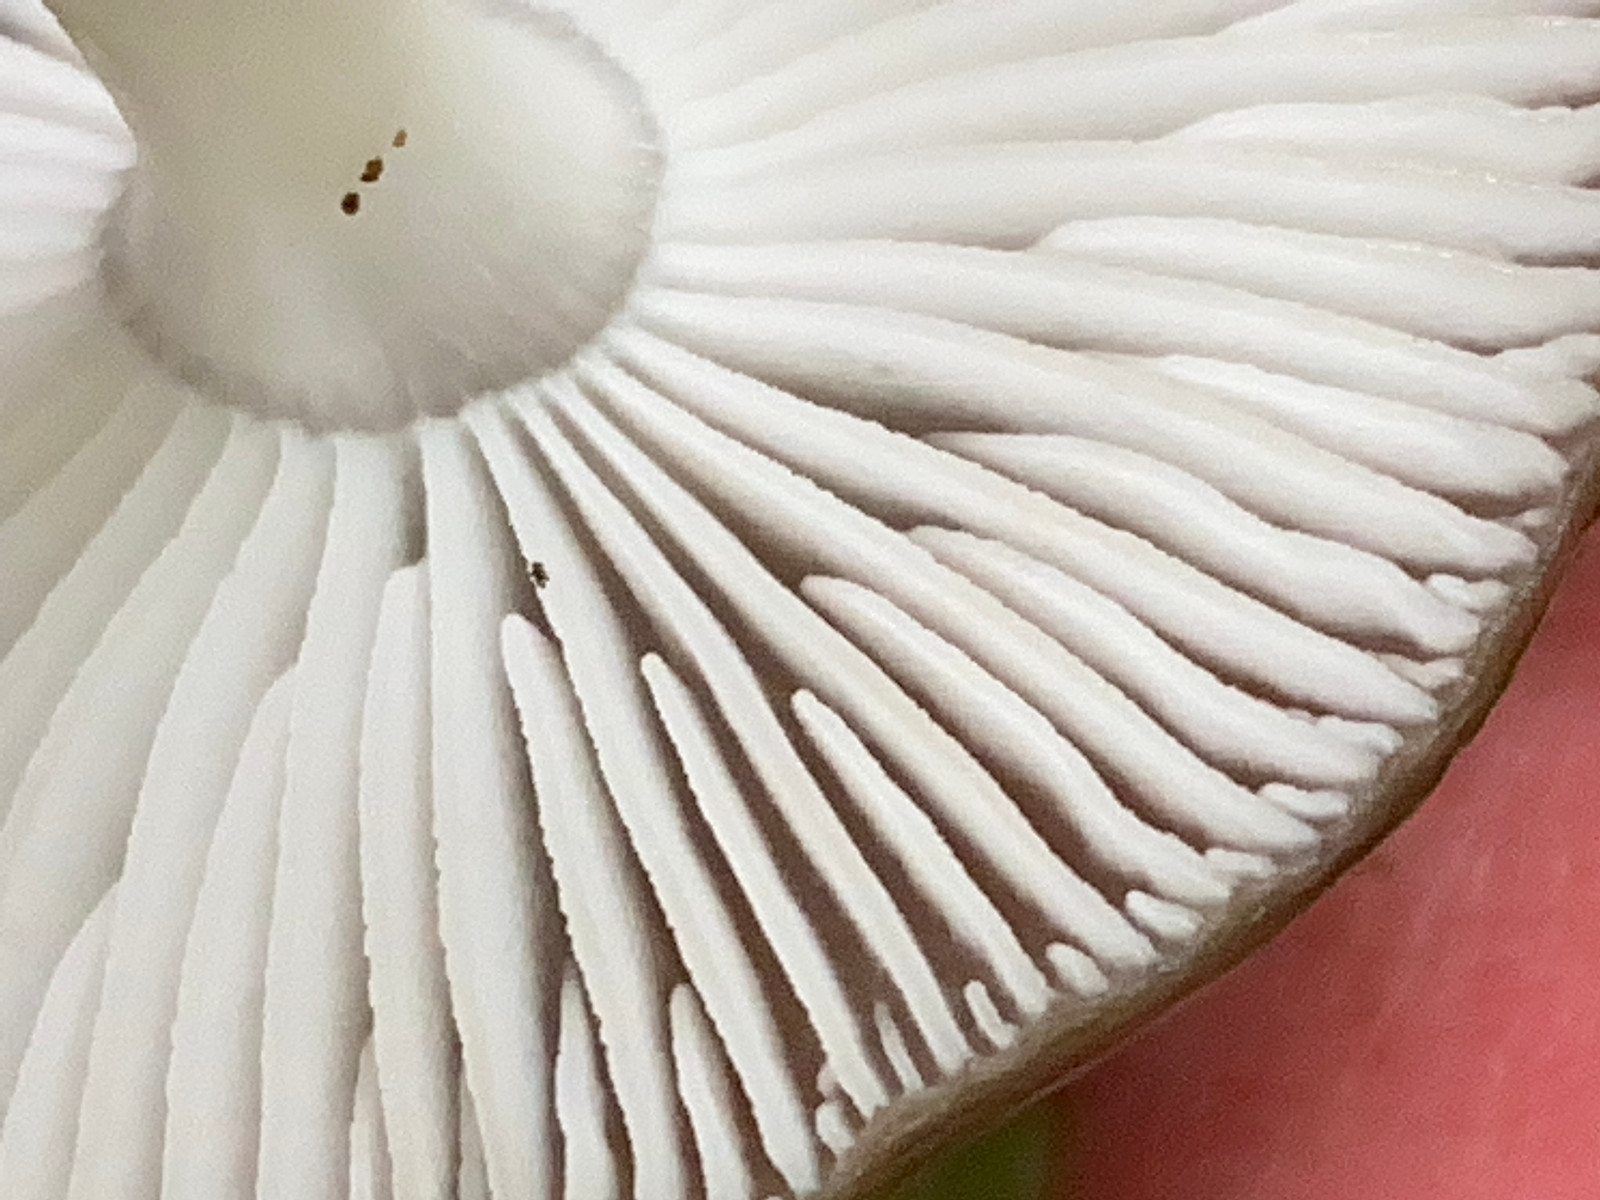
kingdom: Fungi
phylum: Basidiomycota
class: Agaricomycetes
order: Agaricales
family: Physalacriaceae
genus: Hymenopellis
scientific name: Hymenopellis radicata
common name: almindelig pælerodshat
